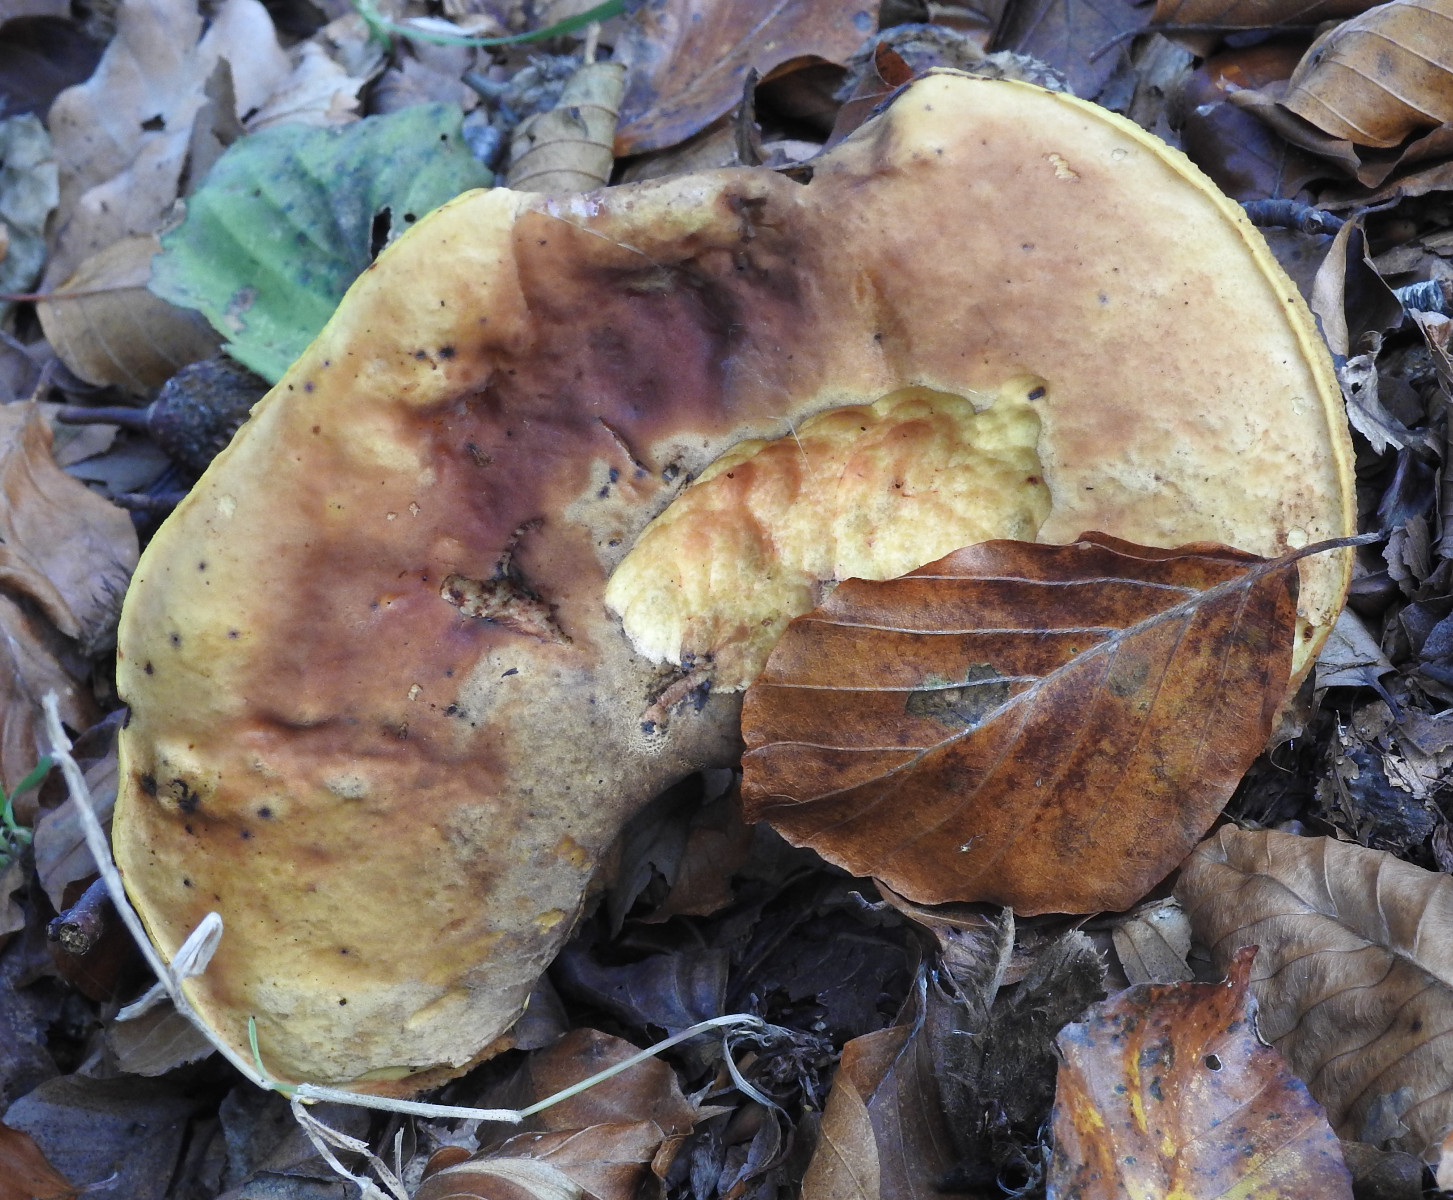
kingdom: Fungi
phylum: Basidiomycota
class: Agaricomycetes
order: Boletales
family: Boletaceae
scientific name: Boletaceae
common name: rørhatfamilien
